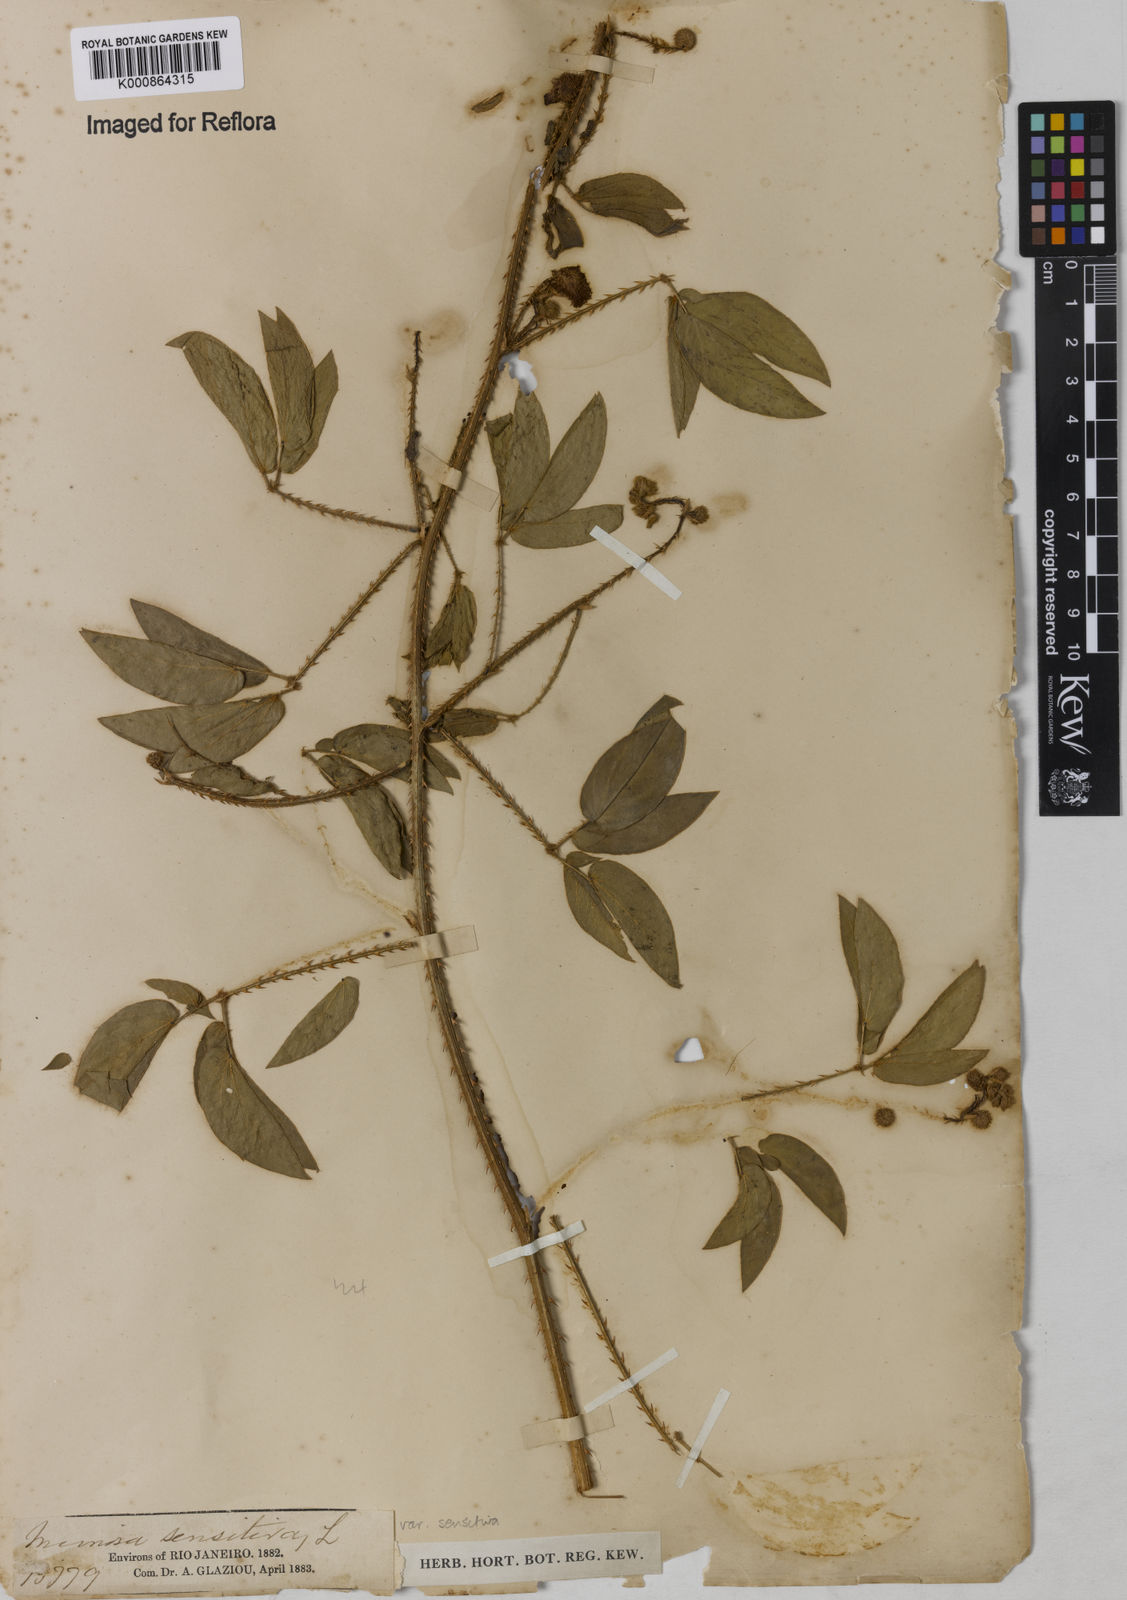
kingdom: Plantae
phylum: Tracheophyta
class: Magnoliopsida
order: Fabales
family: Fabaceae
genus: Mimosa
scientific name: Mimosa sensitiva
